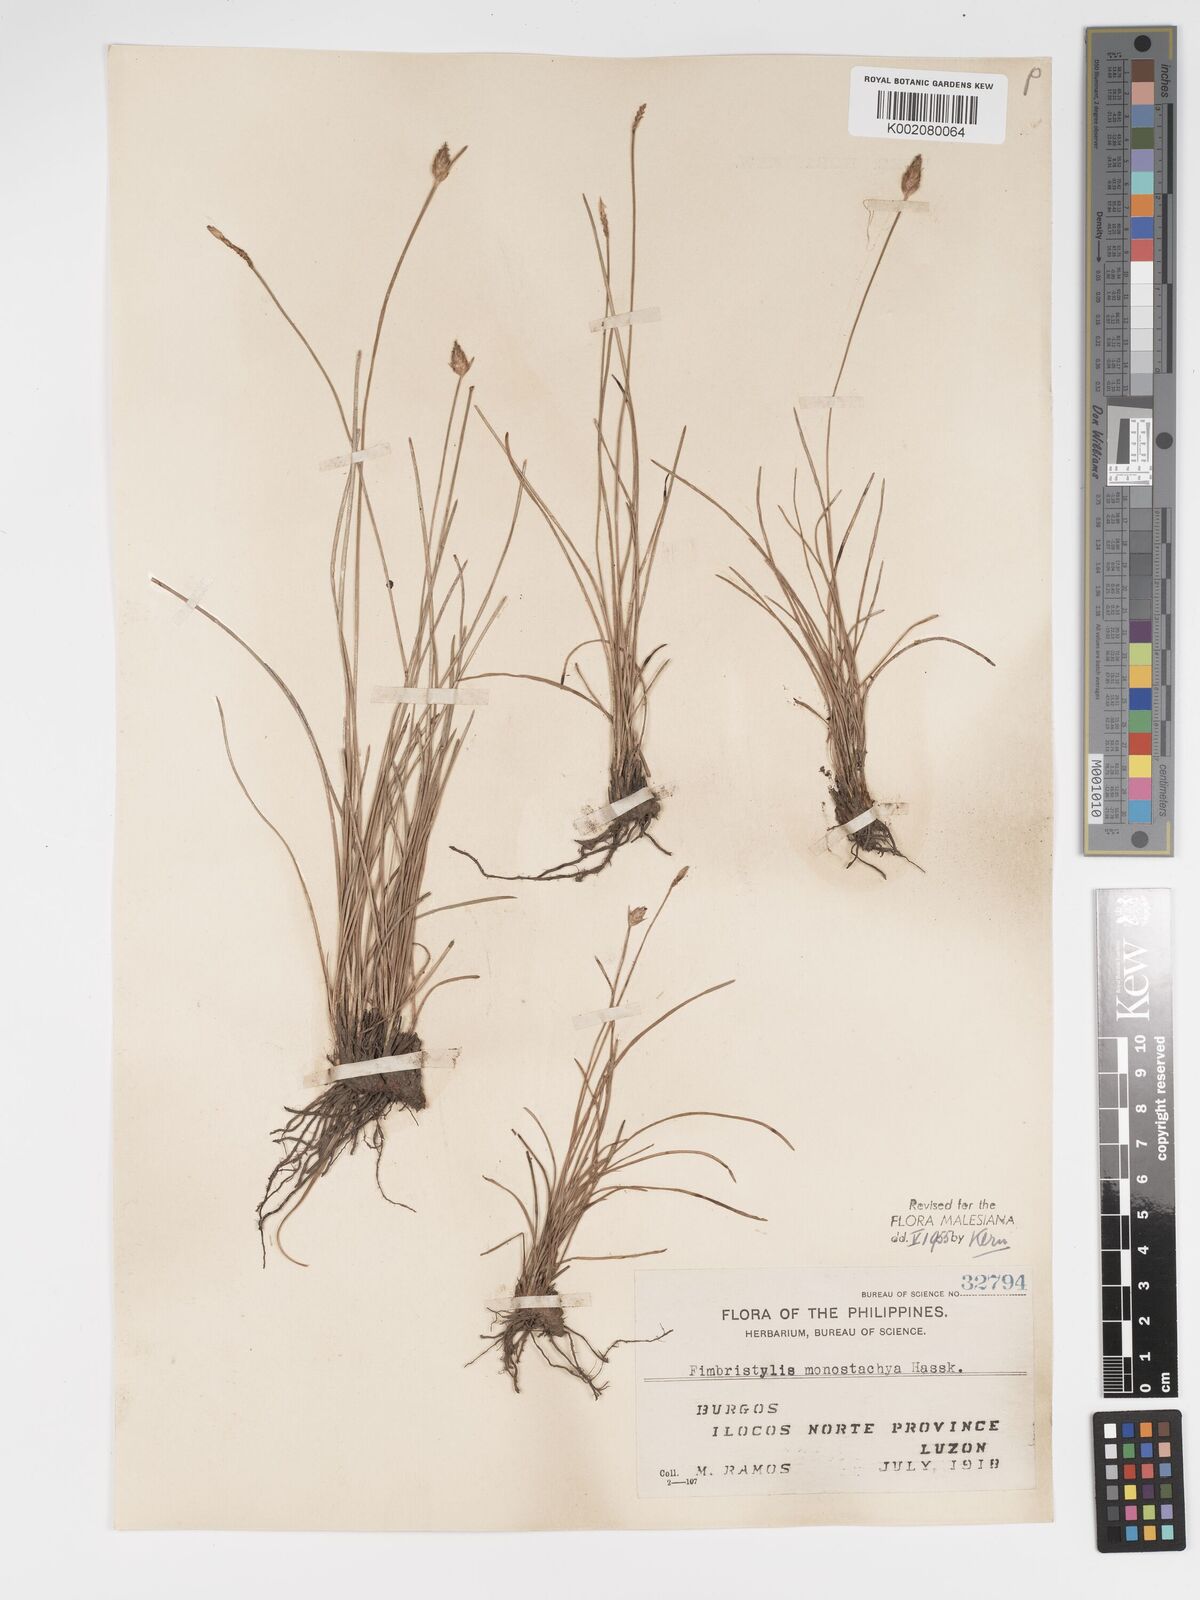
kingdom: Plantae
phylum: Tracheophyta
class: Liliopsida
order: Poales
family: Cyperaceae
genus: Abildgaardia
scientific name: Abildgaardia ovata
